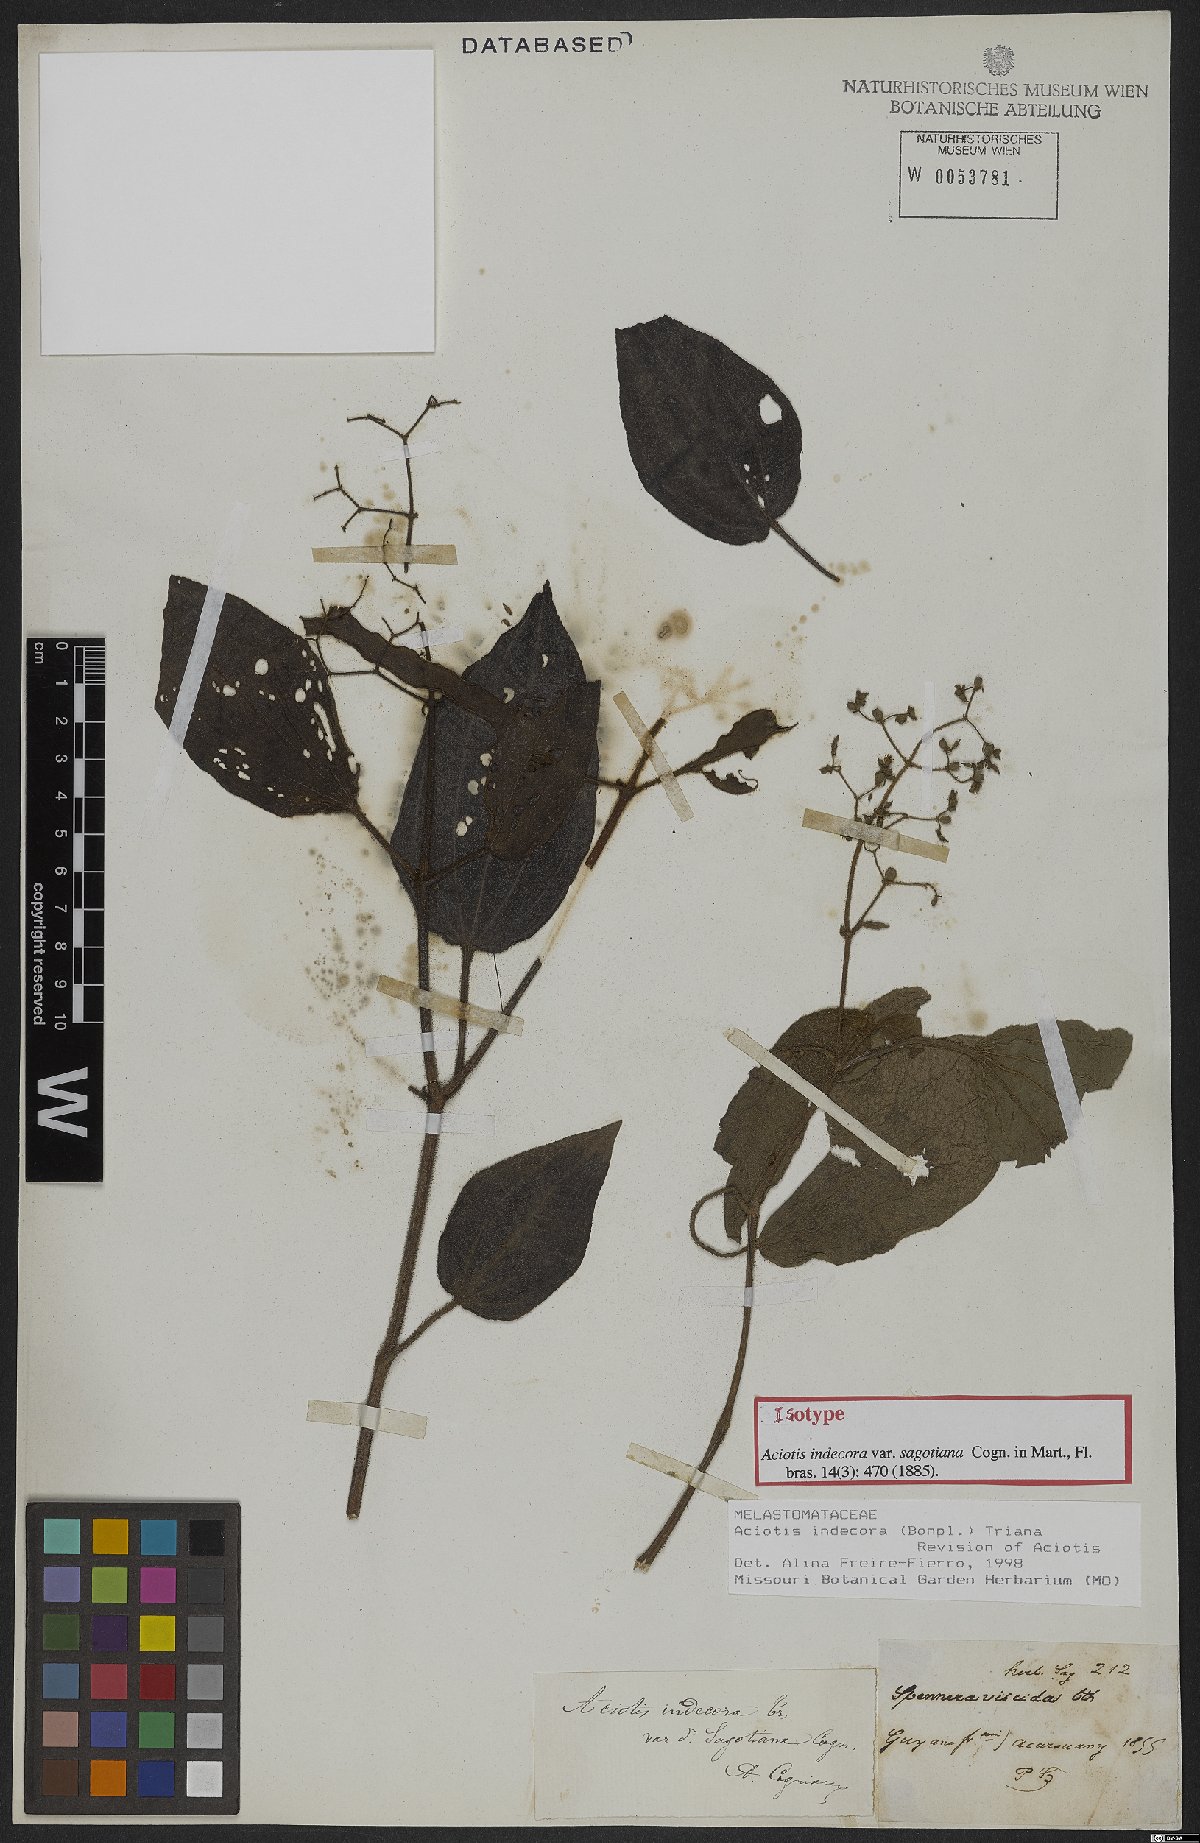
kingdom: Plantae
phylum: Tracheophyta
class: Magnoliopsida
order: Myrtales
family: Melastomataceae
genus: Aciotis
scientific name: Aciotis indecora
